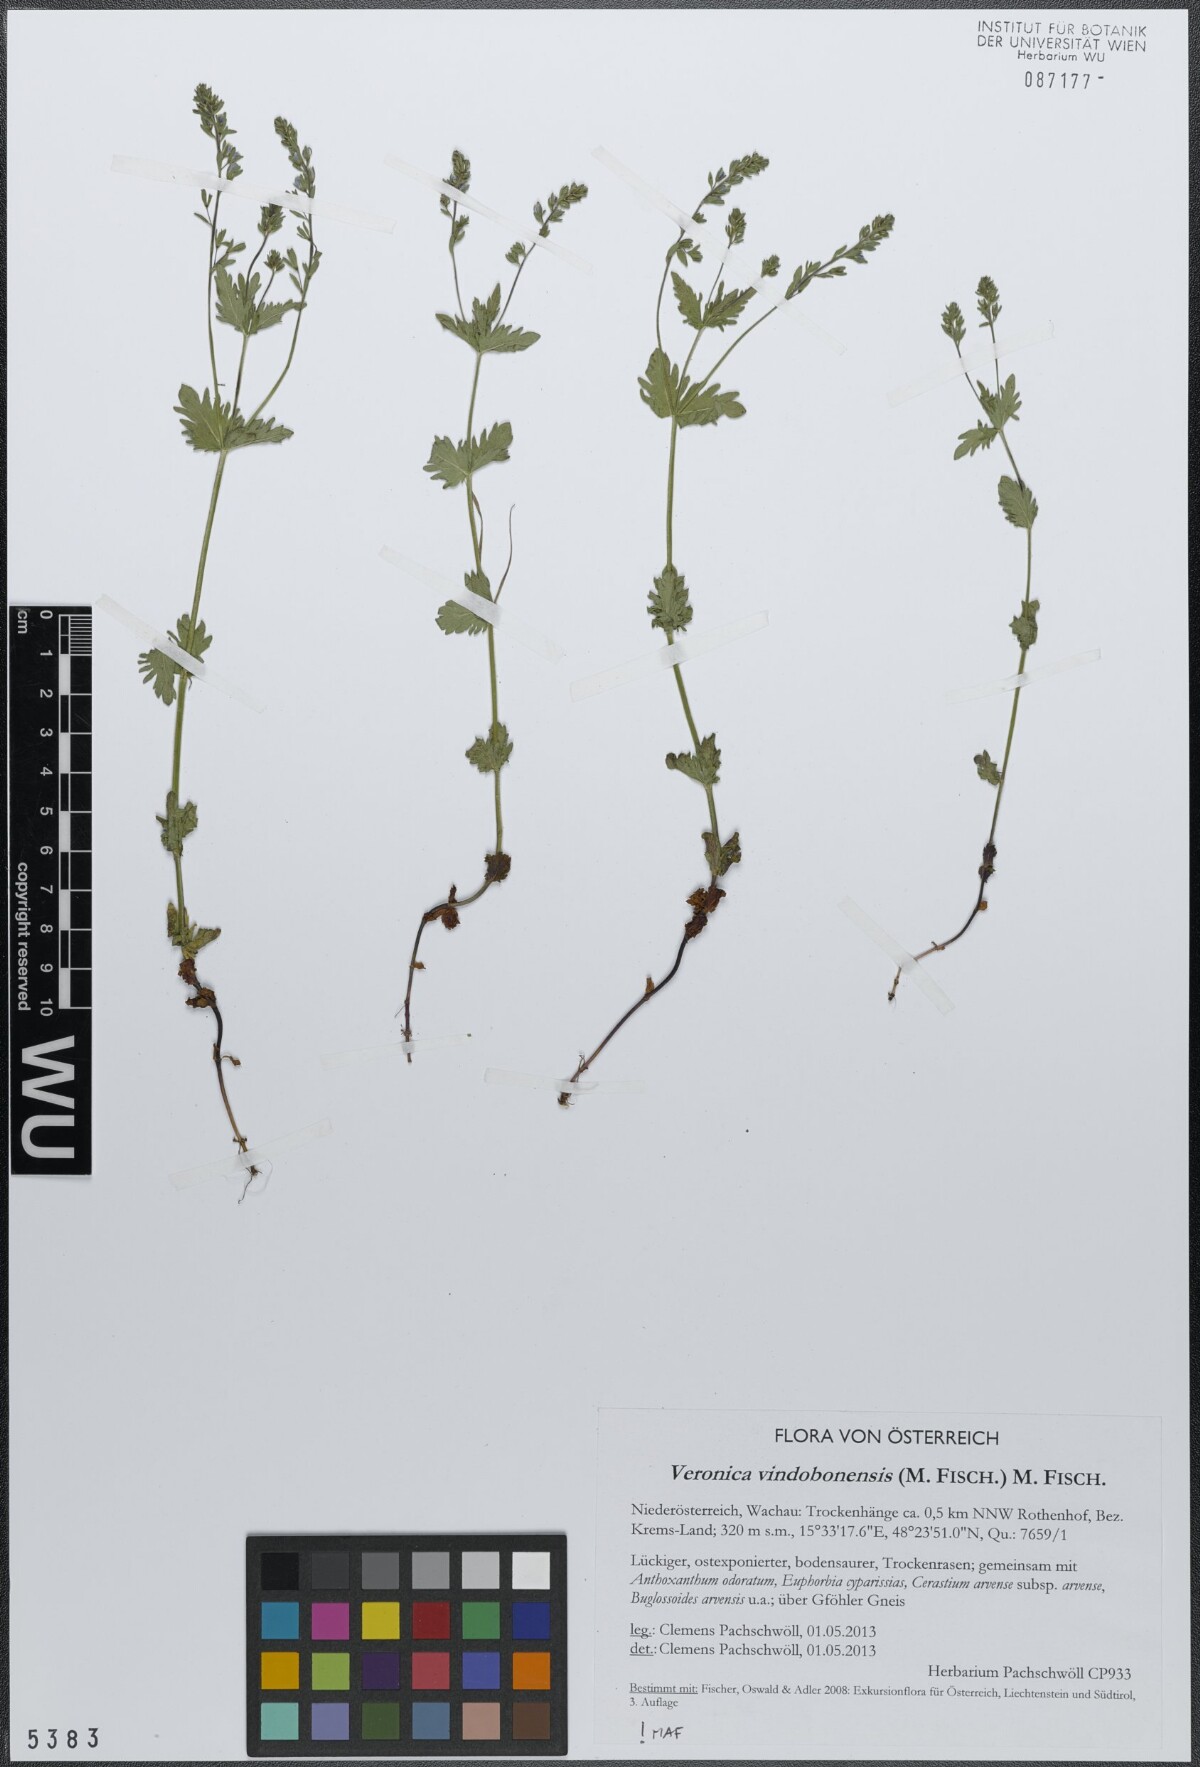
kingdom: Plantae
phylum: Tracheophyta
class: Magnoliopsida
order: Lamiales
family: Plantaginaceae
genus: Veronica
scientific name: Veronica vindobonensis
